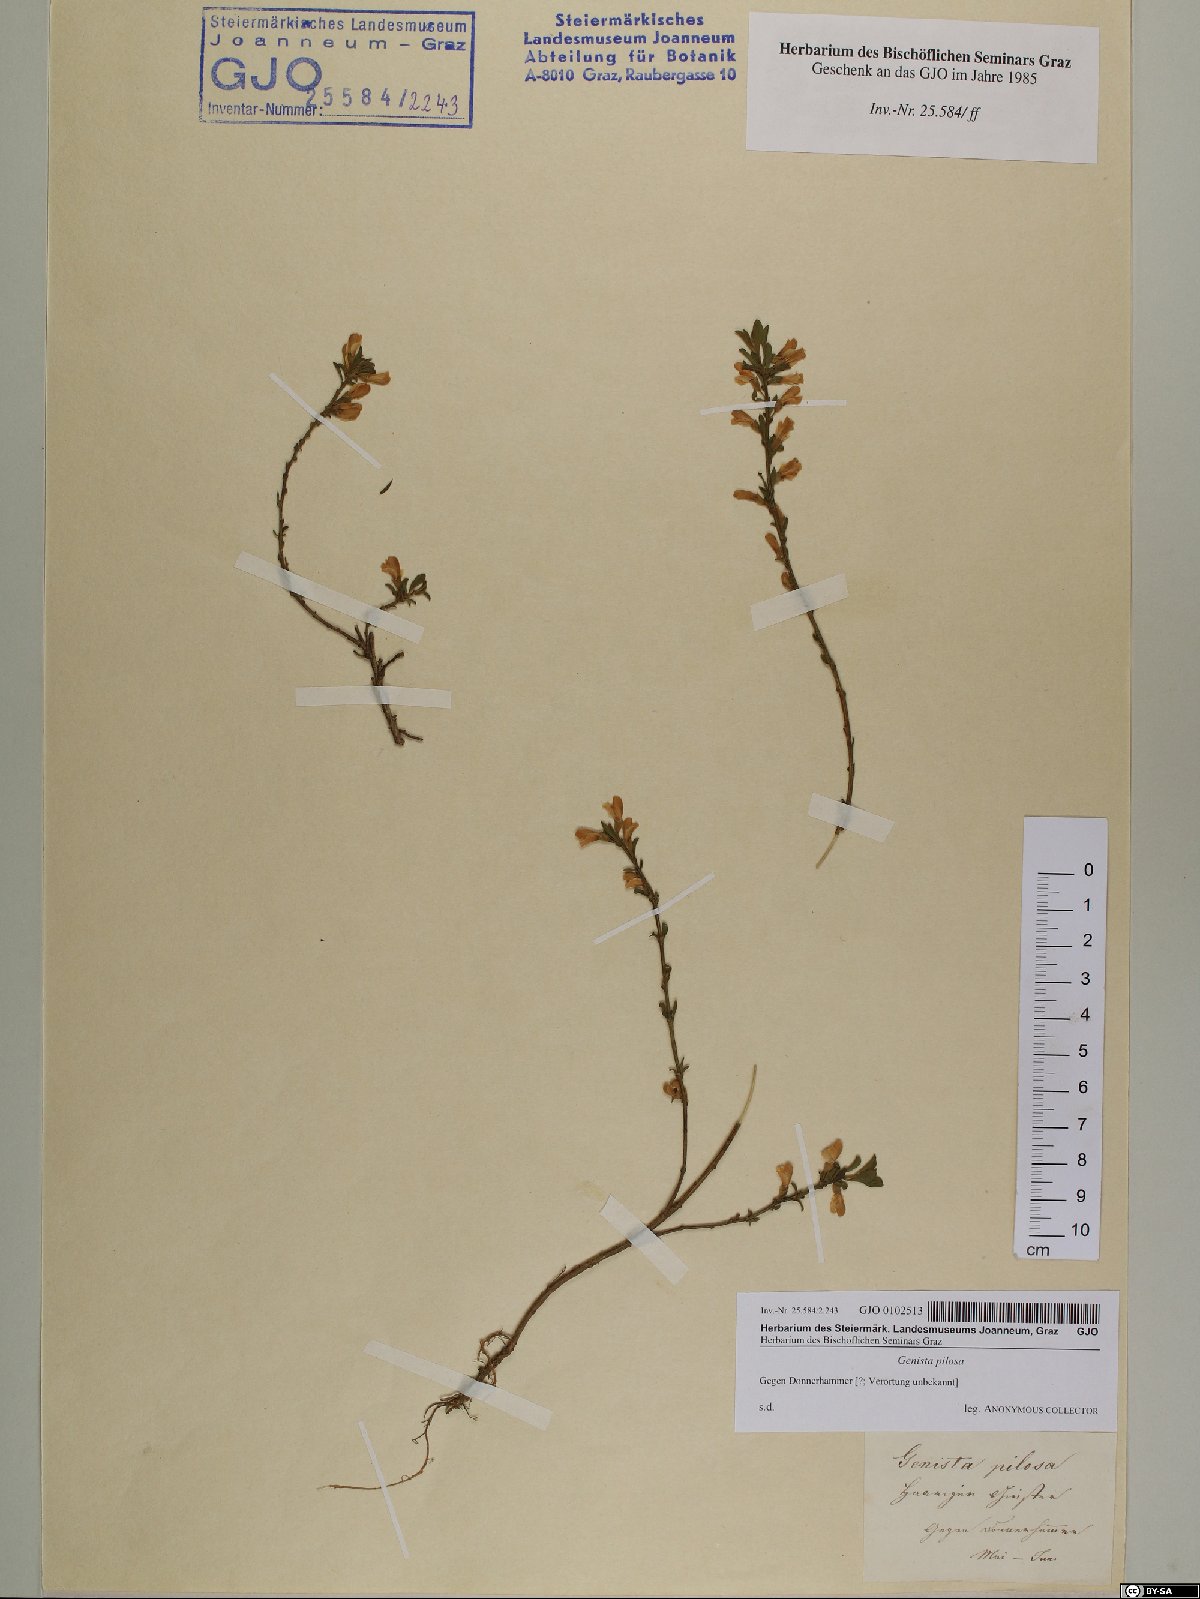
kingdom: Plantae
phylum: Tracheophyta
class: Magnoliopsida
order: Fabales
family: Fabaceae
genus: Genista
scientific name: Genista pilosa
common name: Hairy greenweed
